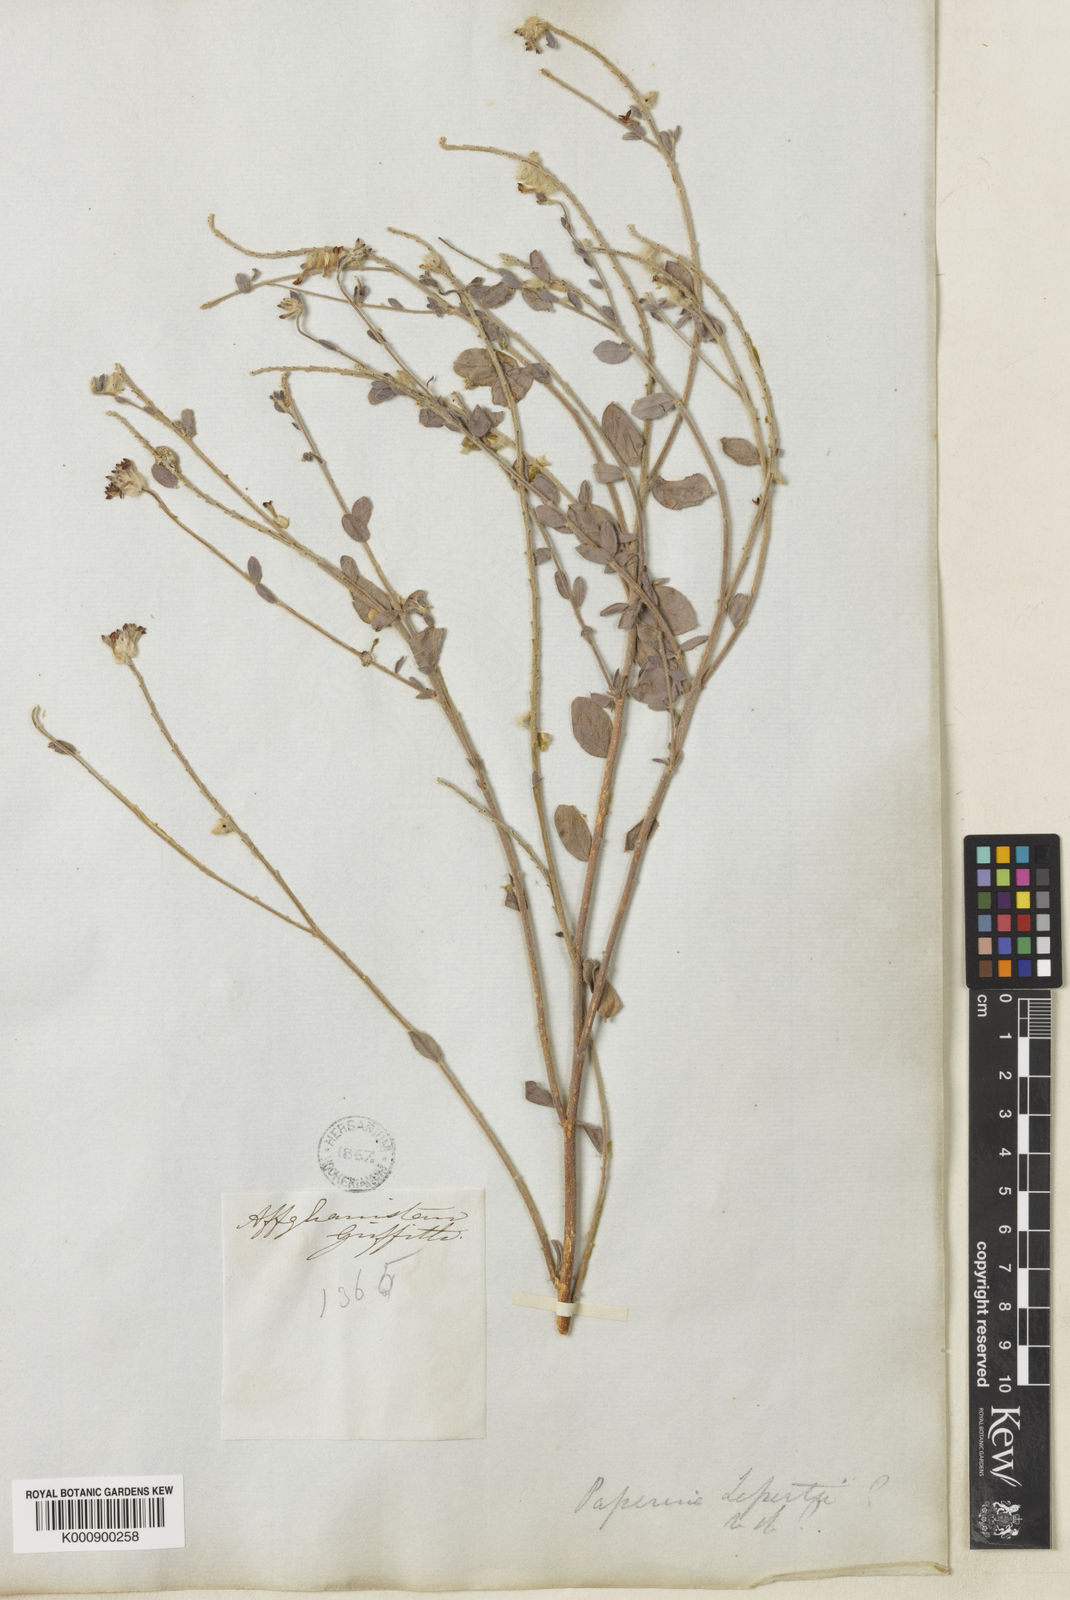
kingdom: Plantae
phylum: Tracheophyta
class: Magnoliopsida
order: Malvales
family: Thymelaeaceae
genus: Diarthron
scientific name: Diarthron lessertii
